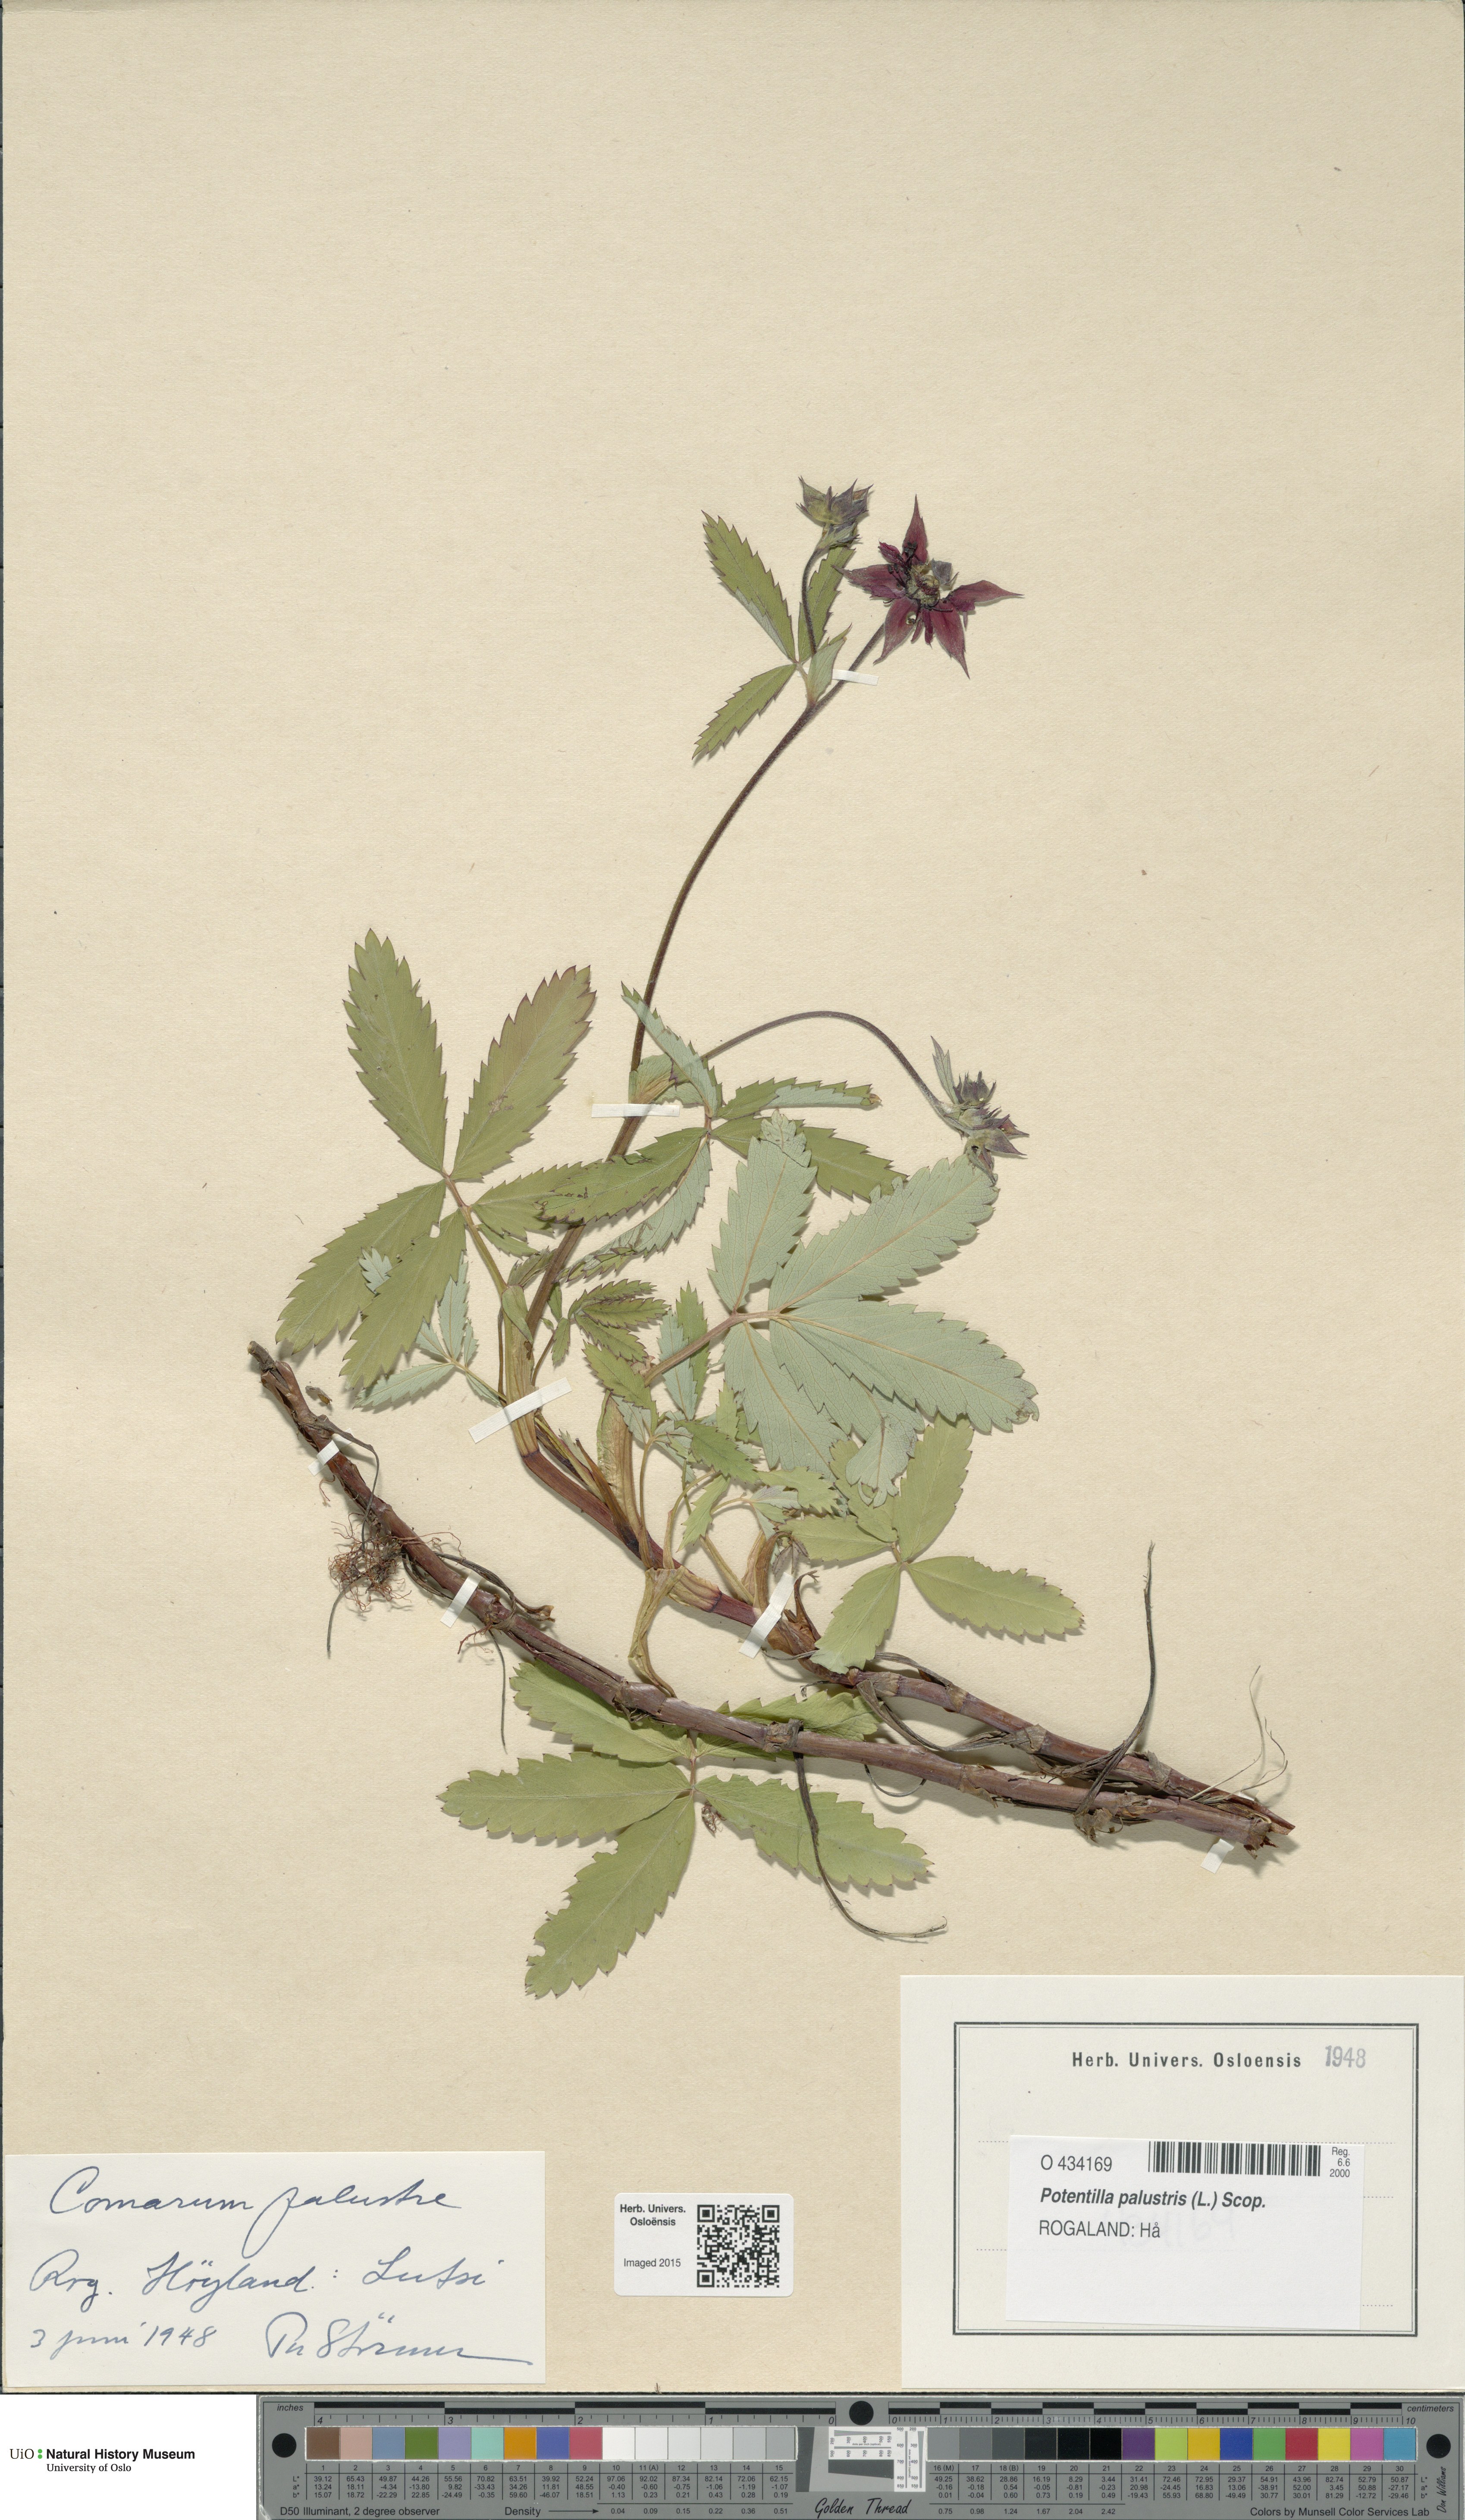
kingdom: Plantae
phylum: Tracheophyta
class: Magnoliopsida
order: Rosales
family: Rosaceae
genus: Comarum
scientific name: Comarum palustre
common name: Marsh cinquefoil
